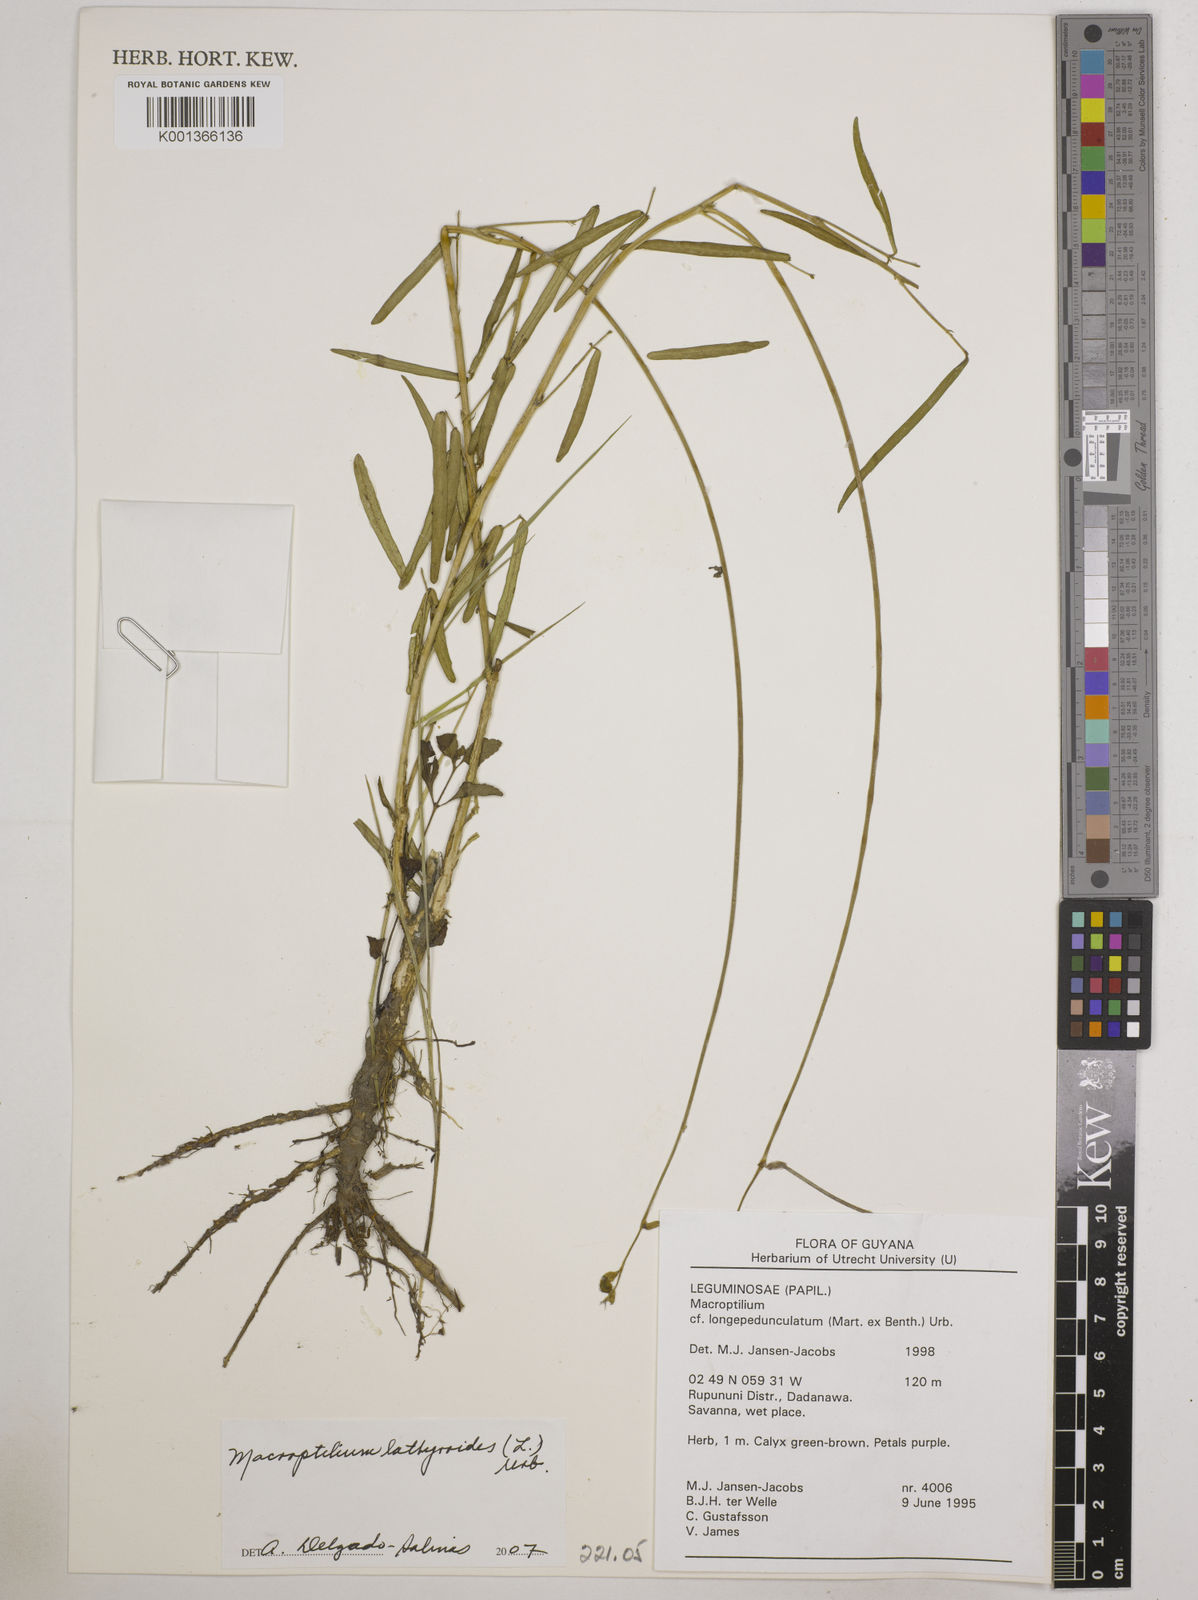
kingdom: Plantae
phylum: Tracheophyta
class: Magnoliopsida
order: Fabales
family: Fabaceae
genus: Macroptilium
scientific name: Macroptilium lathyroides
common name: Wild bushbean
